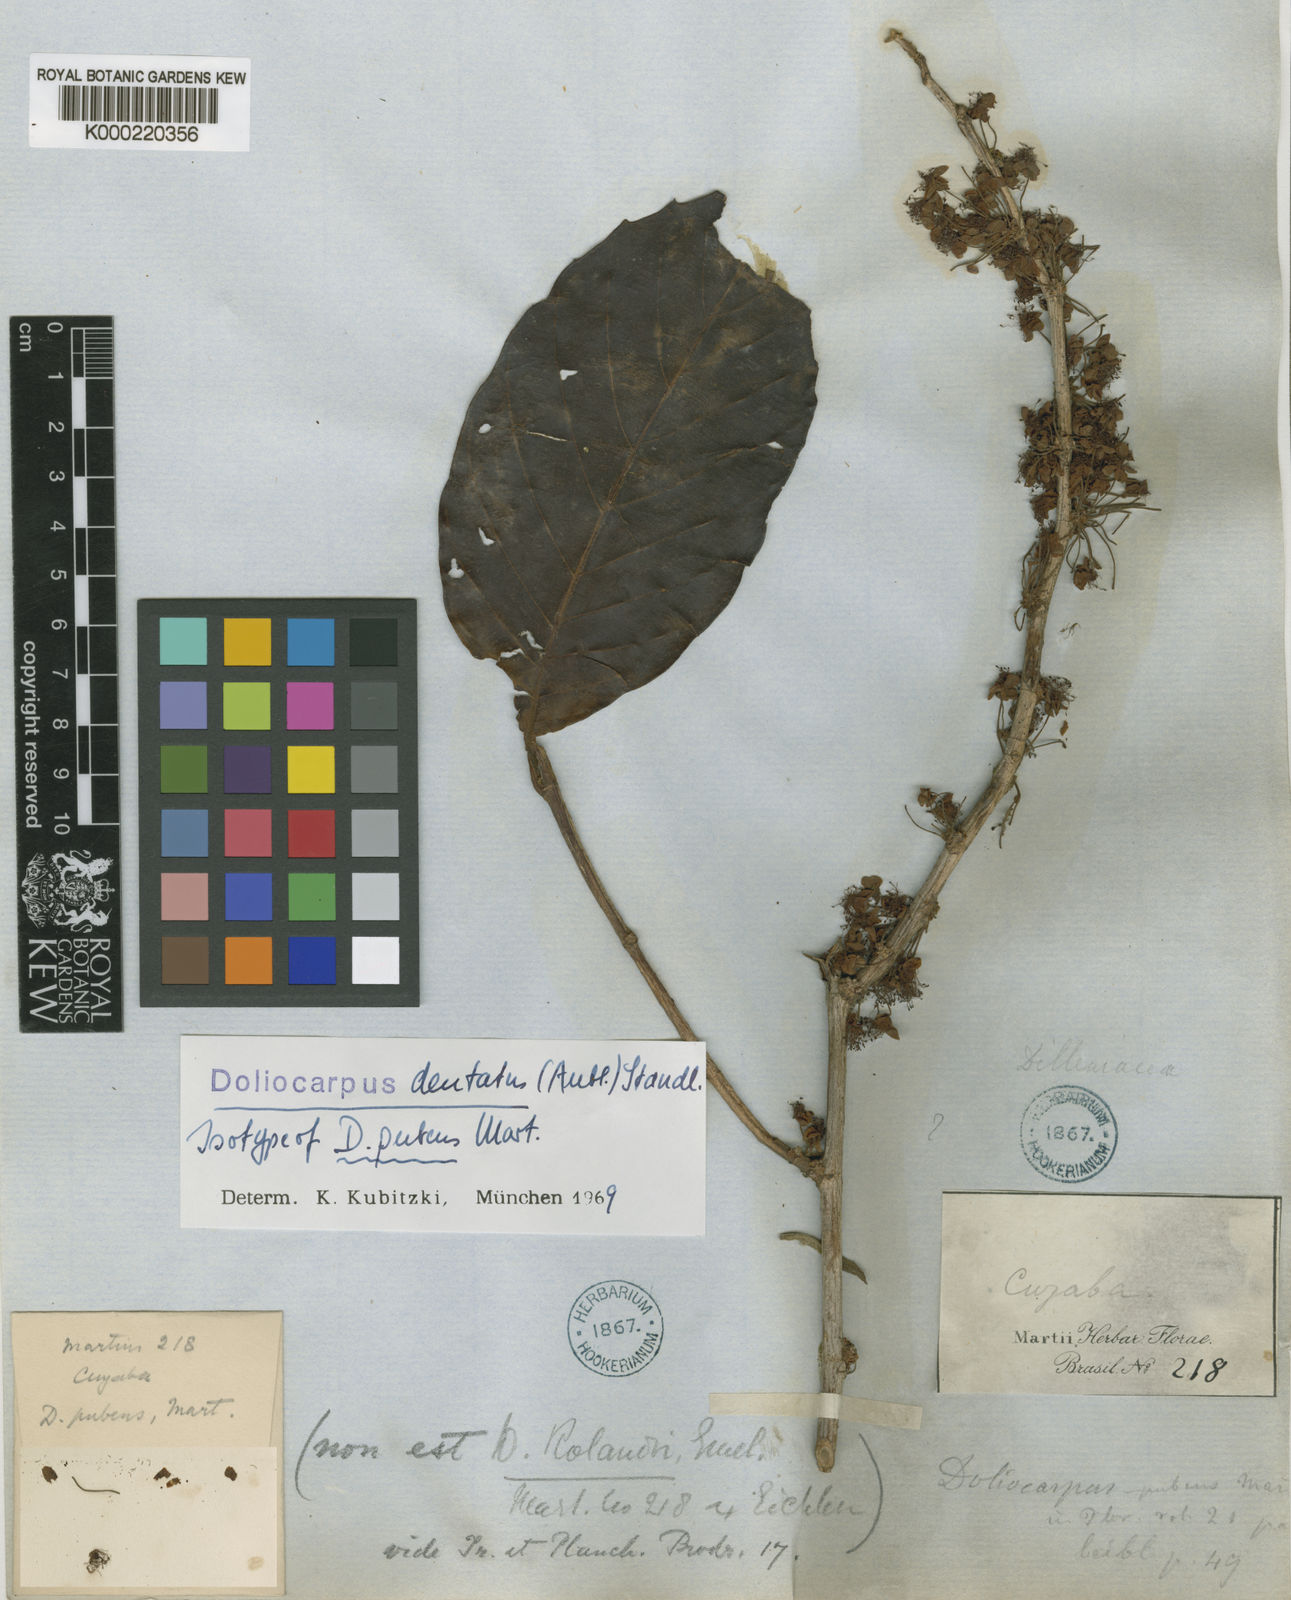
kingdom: Plantae
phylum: Tracheophyta
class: Magnoliopsida
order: Dilleniales
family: Dilleniaceae
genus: Doliocarpus
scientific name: Doliocarpus dentatus
